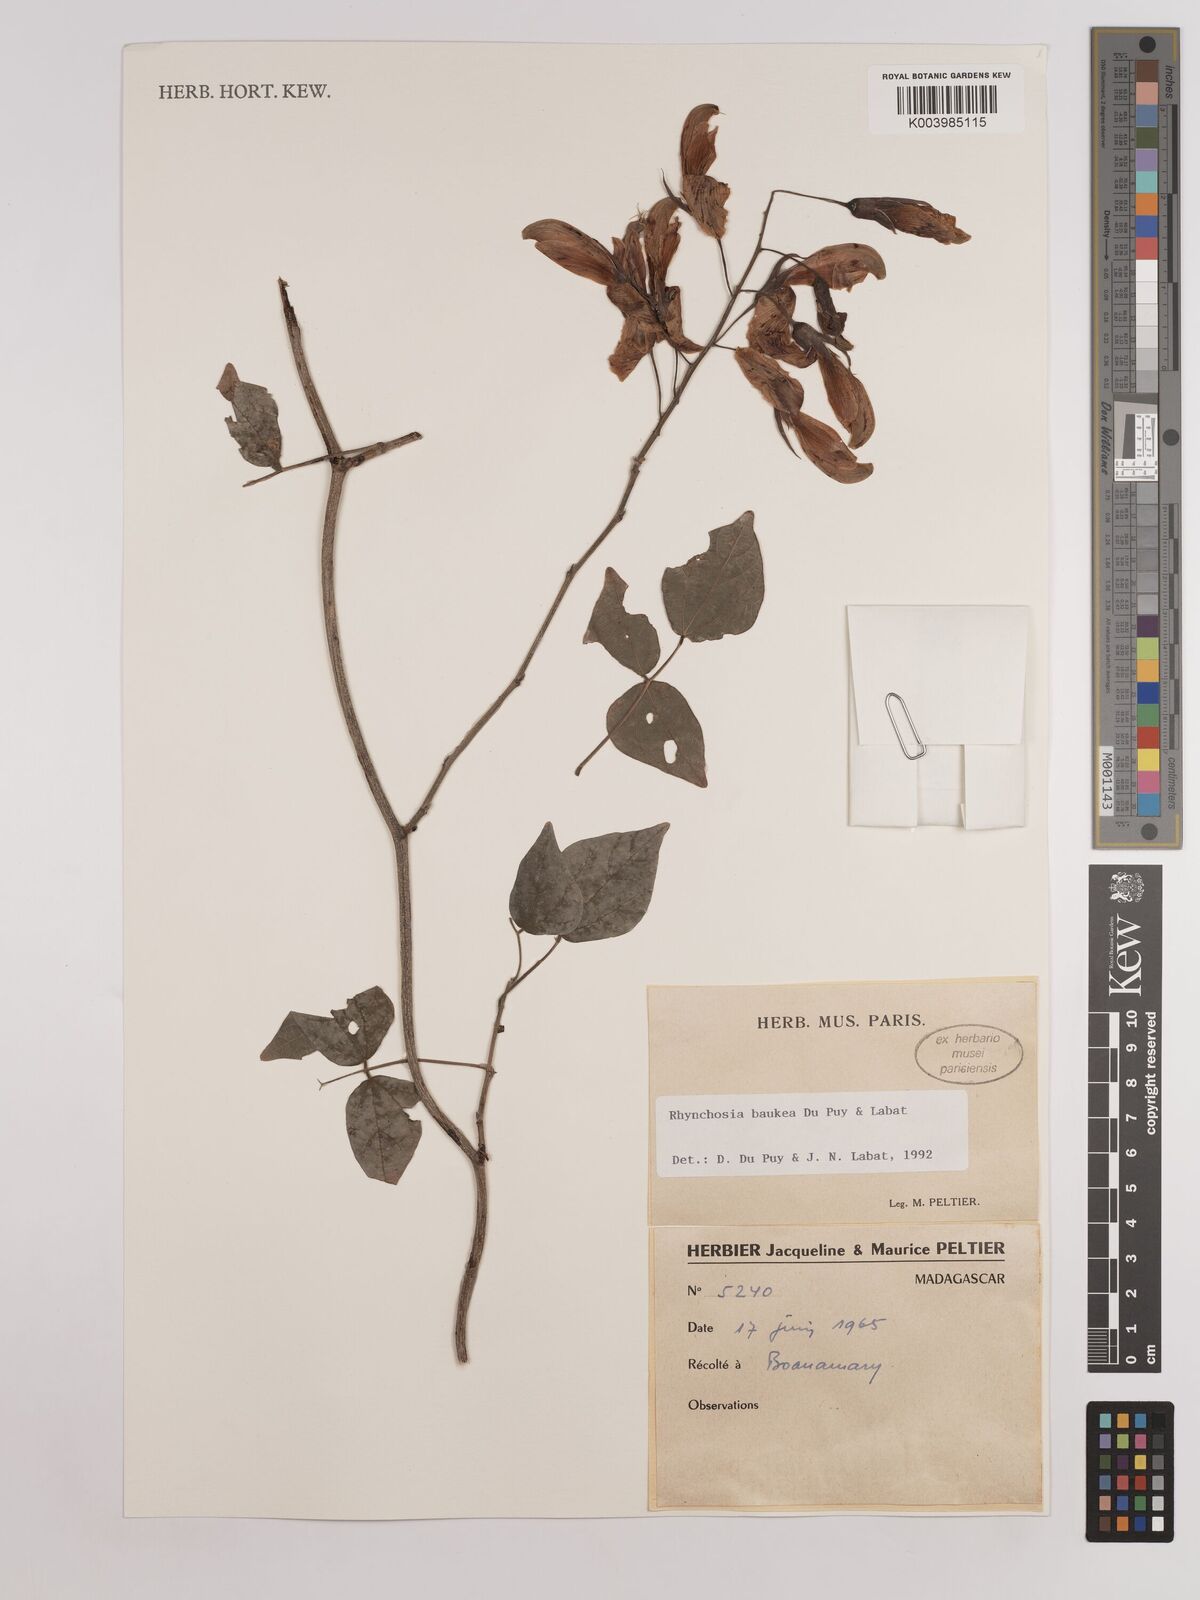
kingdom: Plantae
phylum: Tracheophyta
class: Magnoliopsida
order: Fabales
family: Fabaceae
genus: Rhynchosia
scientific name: Rhynchosia baukea
